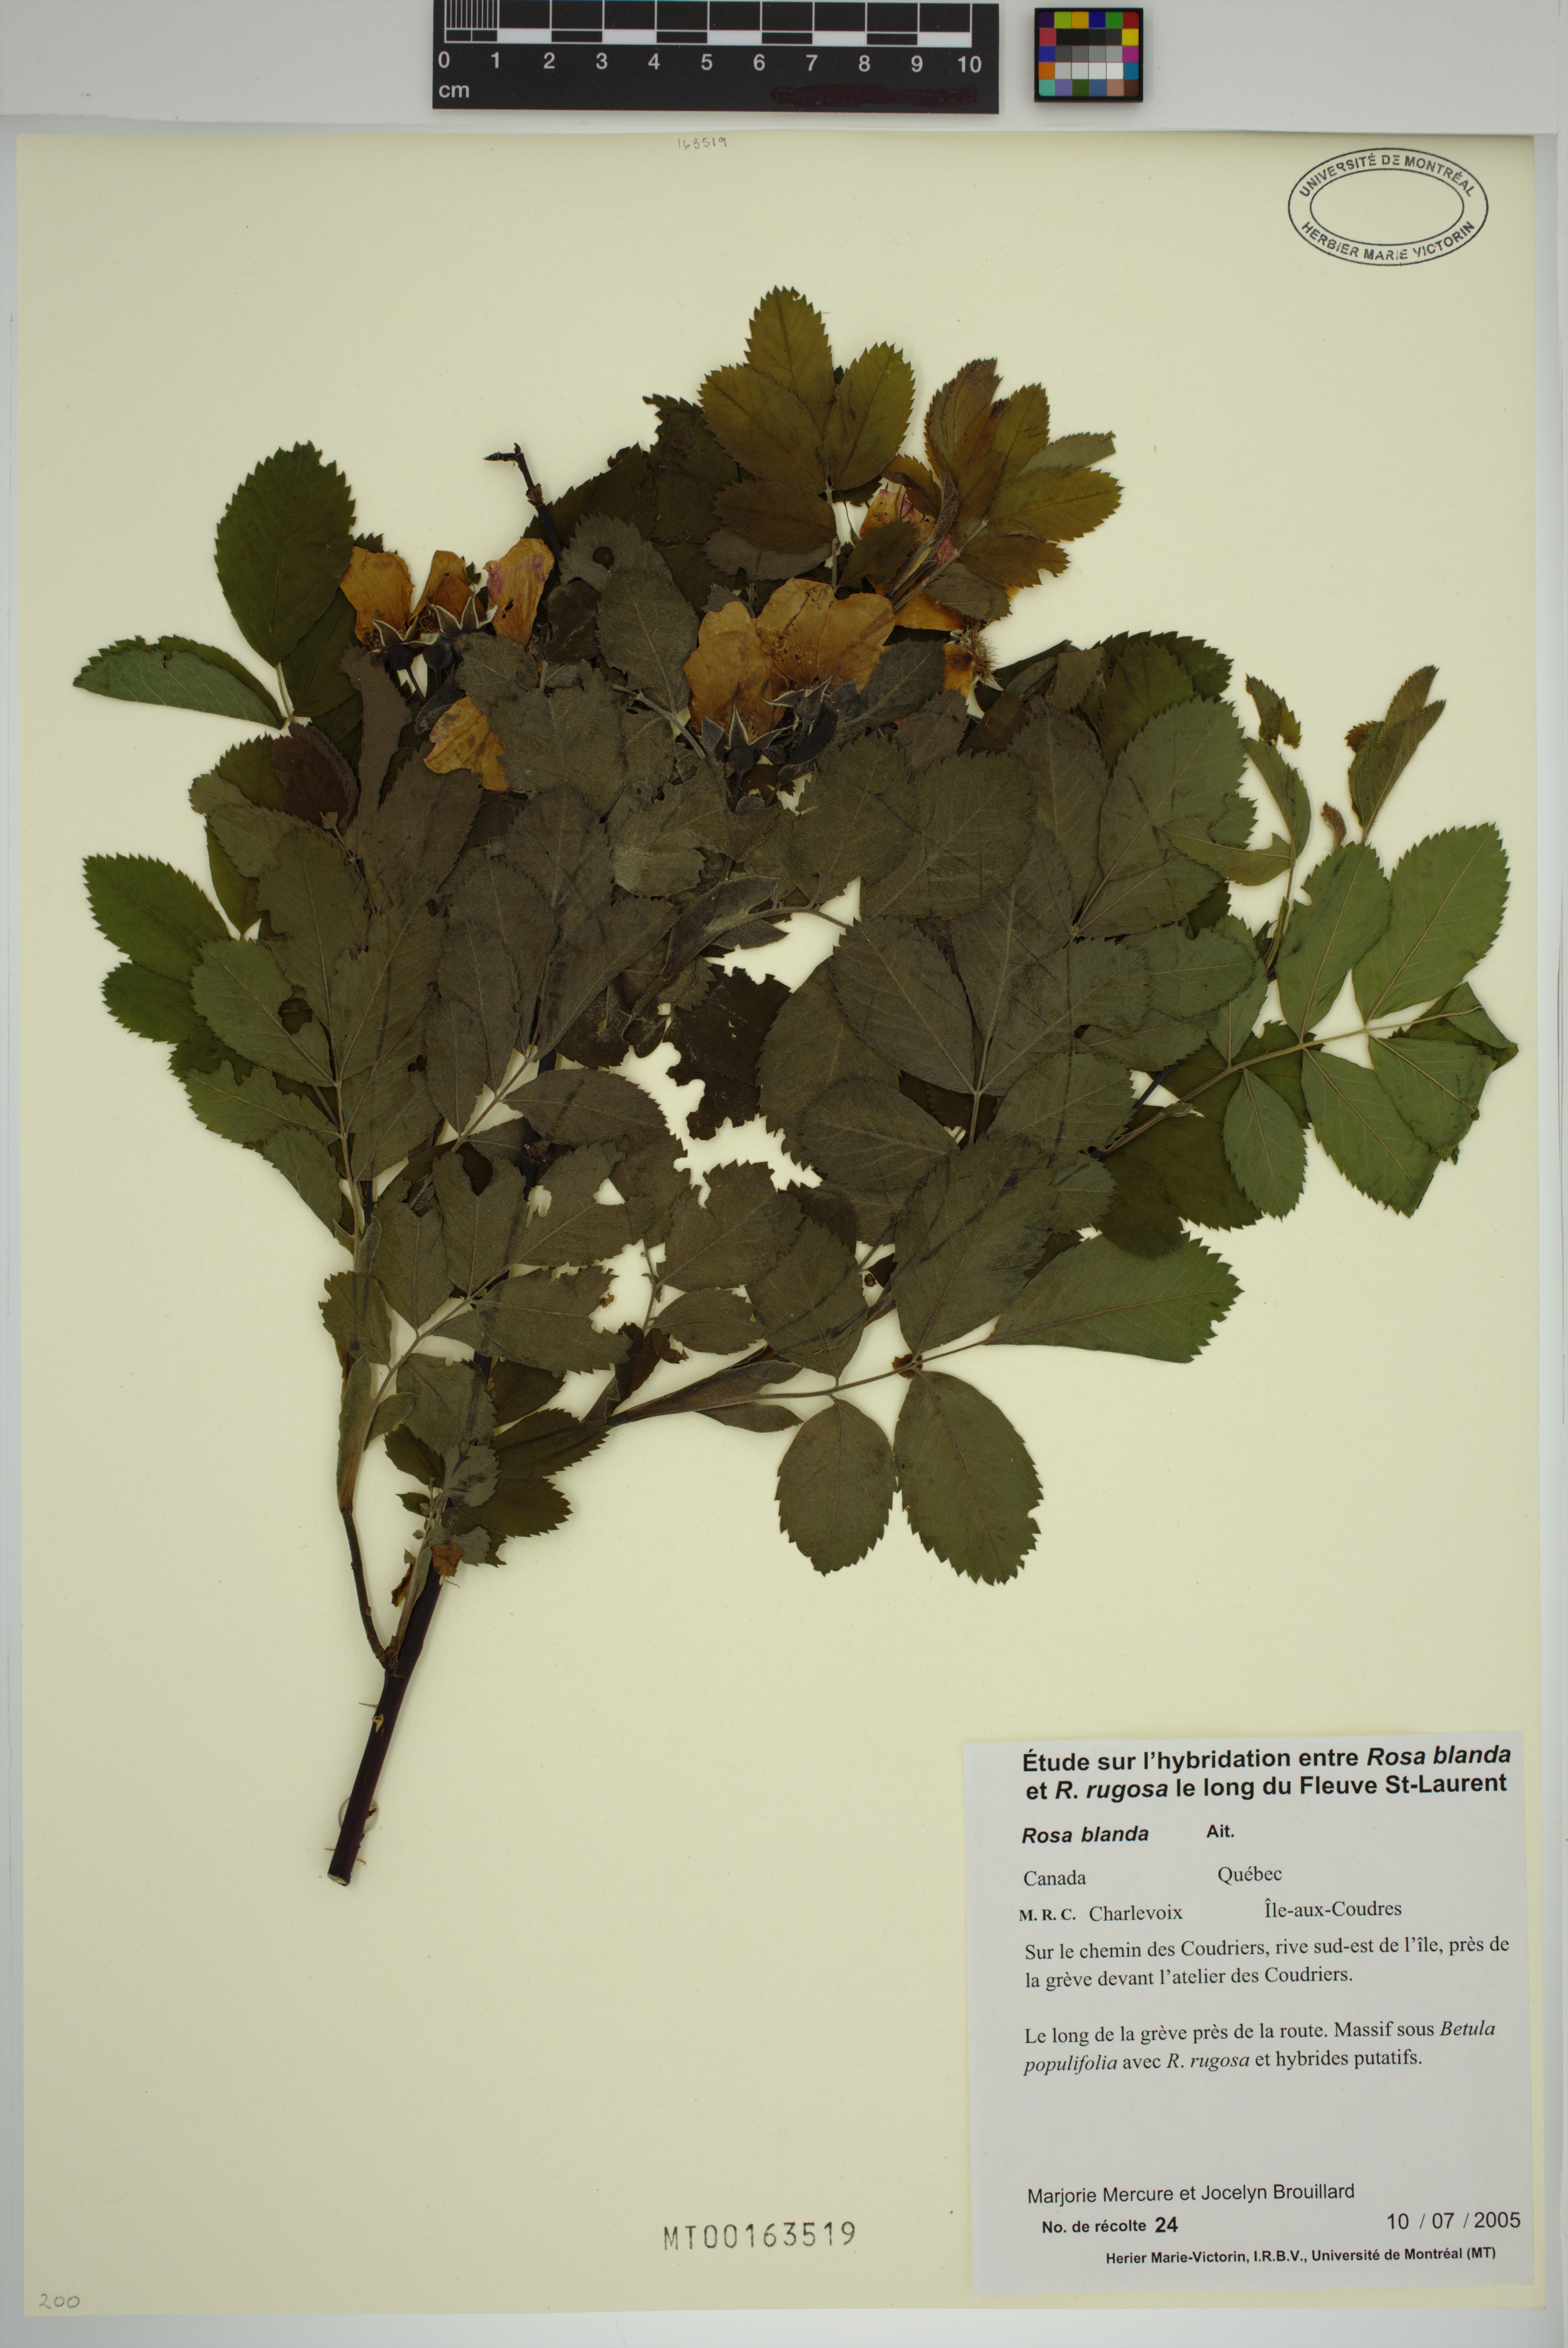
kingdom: Plantae
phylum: Tracheophyta
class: Magnoliopsida
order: Rosales
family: Rosaceae
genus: Rosa
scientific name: Rosa blanda
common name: Smooth rose
